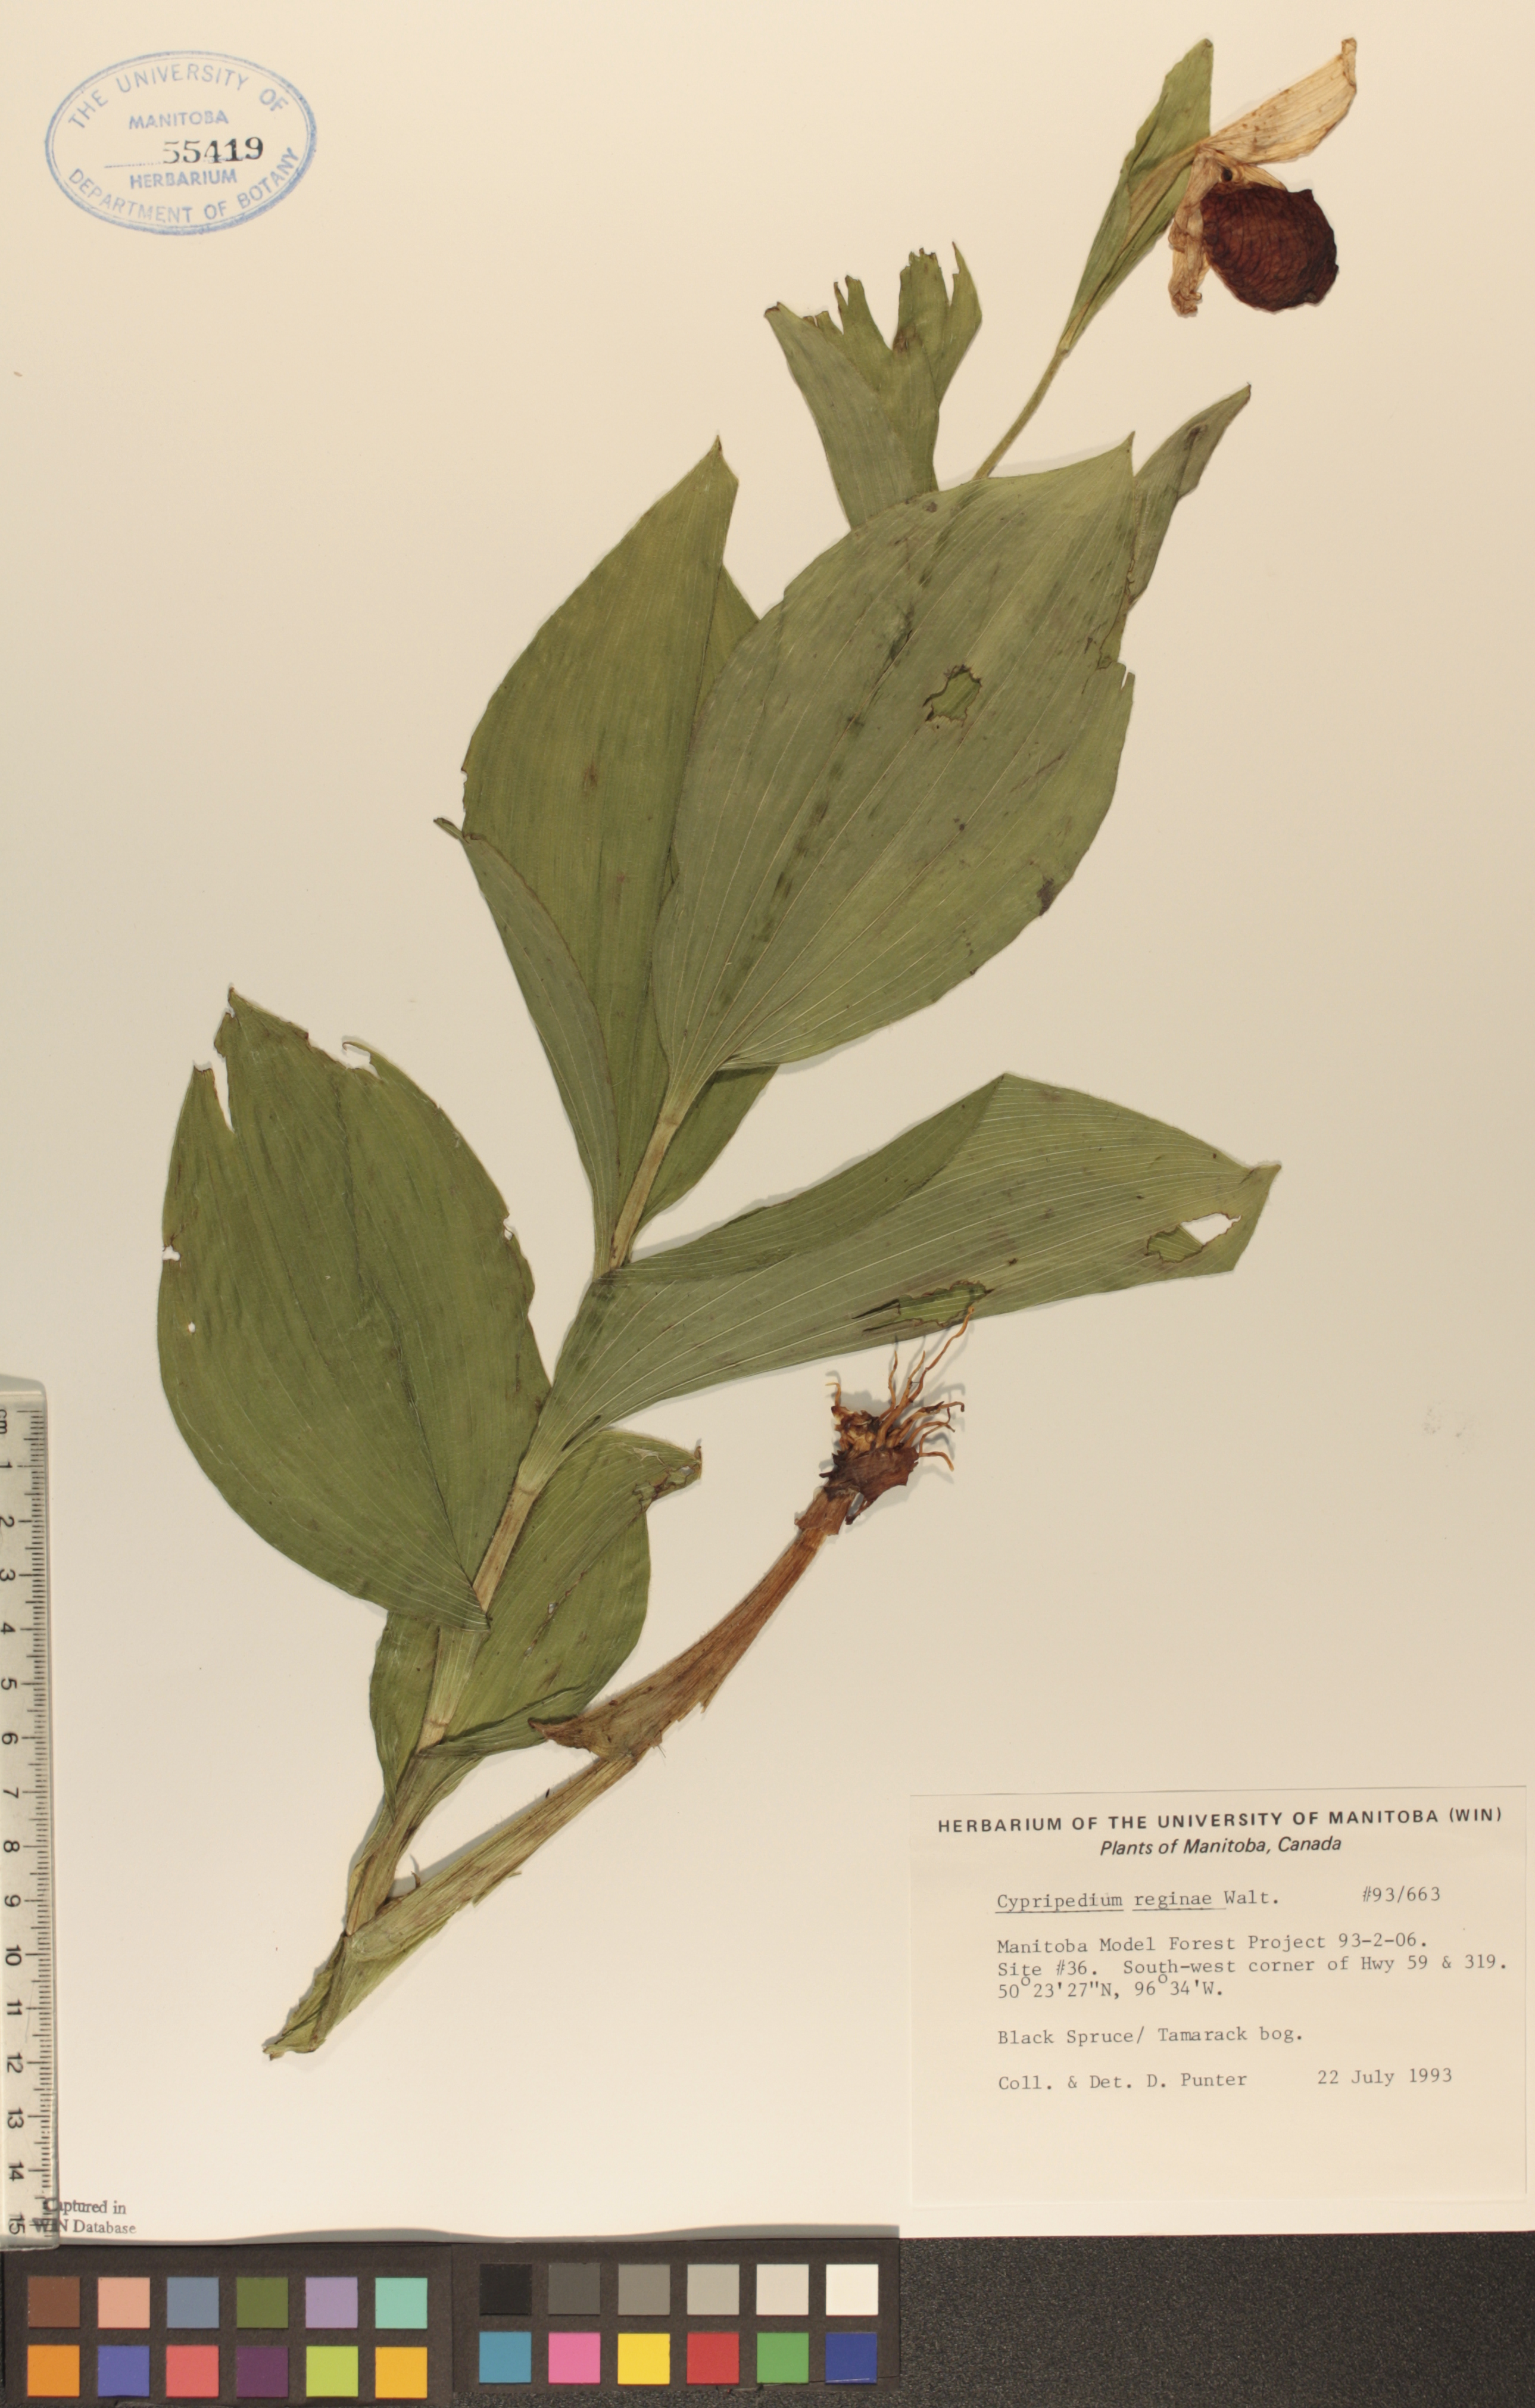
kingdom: Plantae
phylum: Tracheophyta
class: Liliopsida
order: Asparagales
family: Orchidaceae
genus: Cypripedium
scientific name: Cypripedium reginae
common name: Queen lady's-slipper
